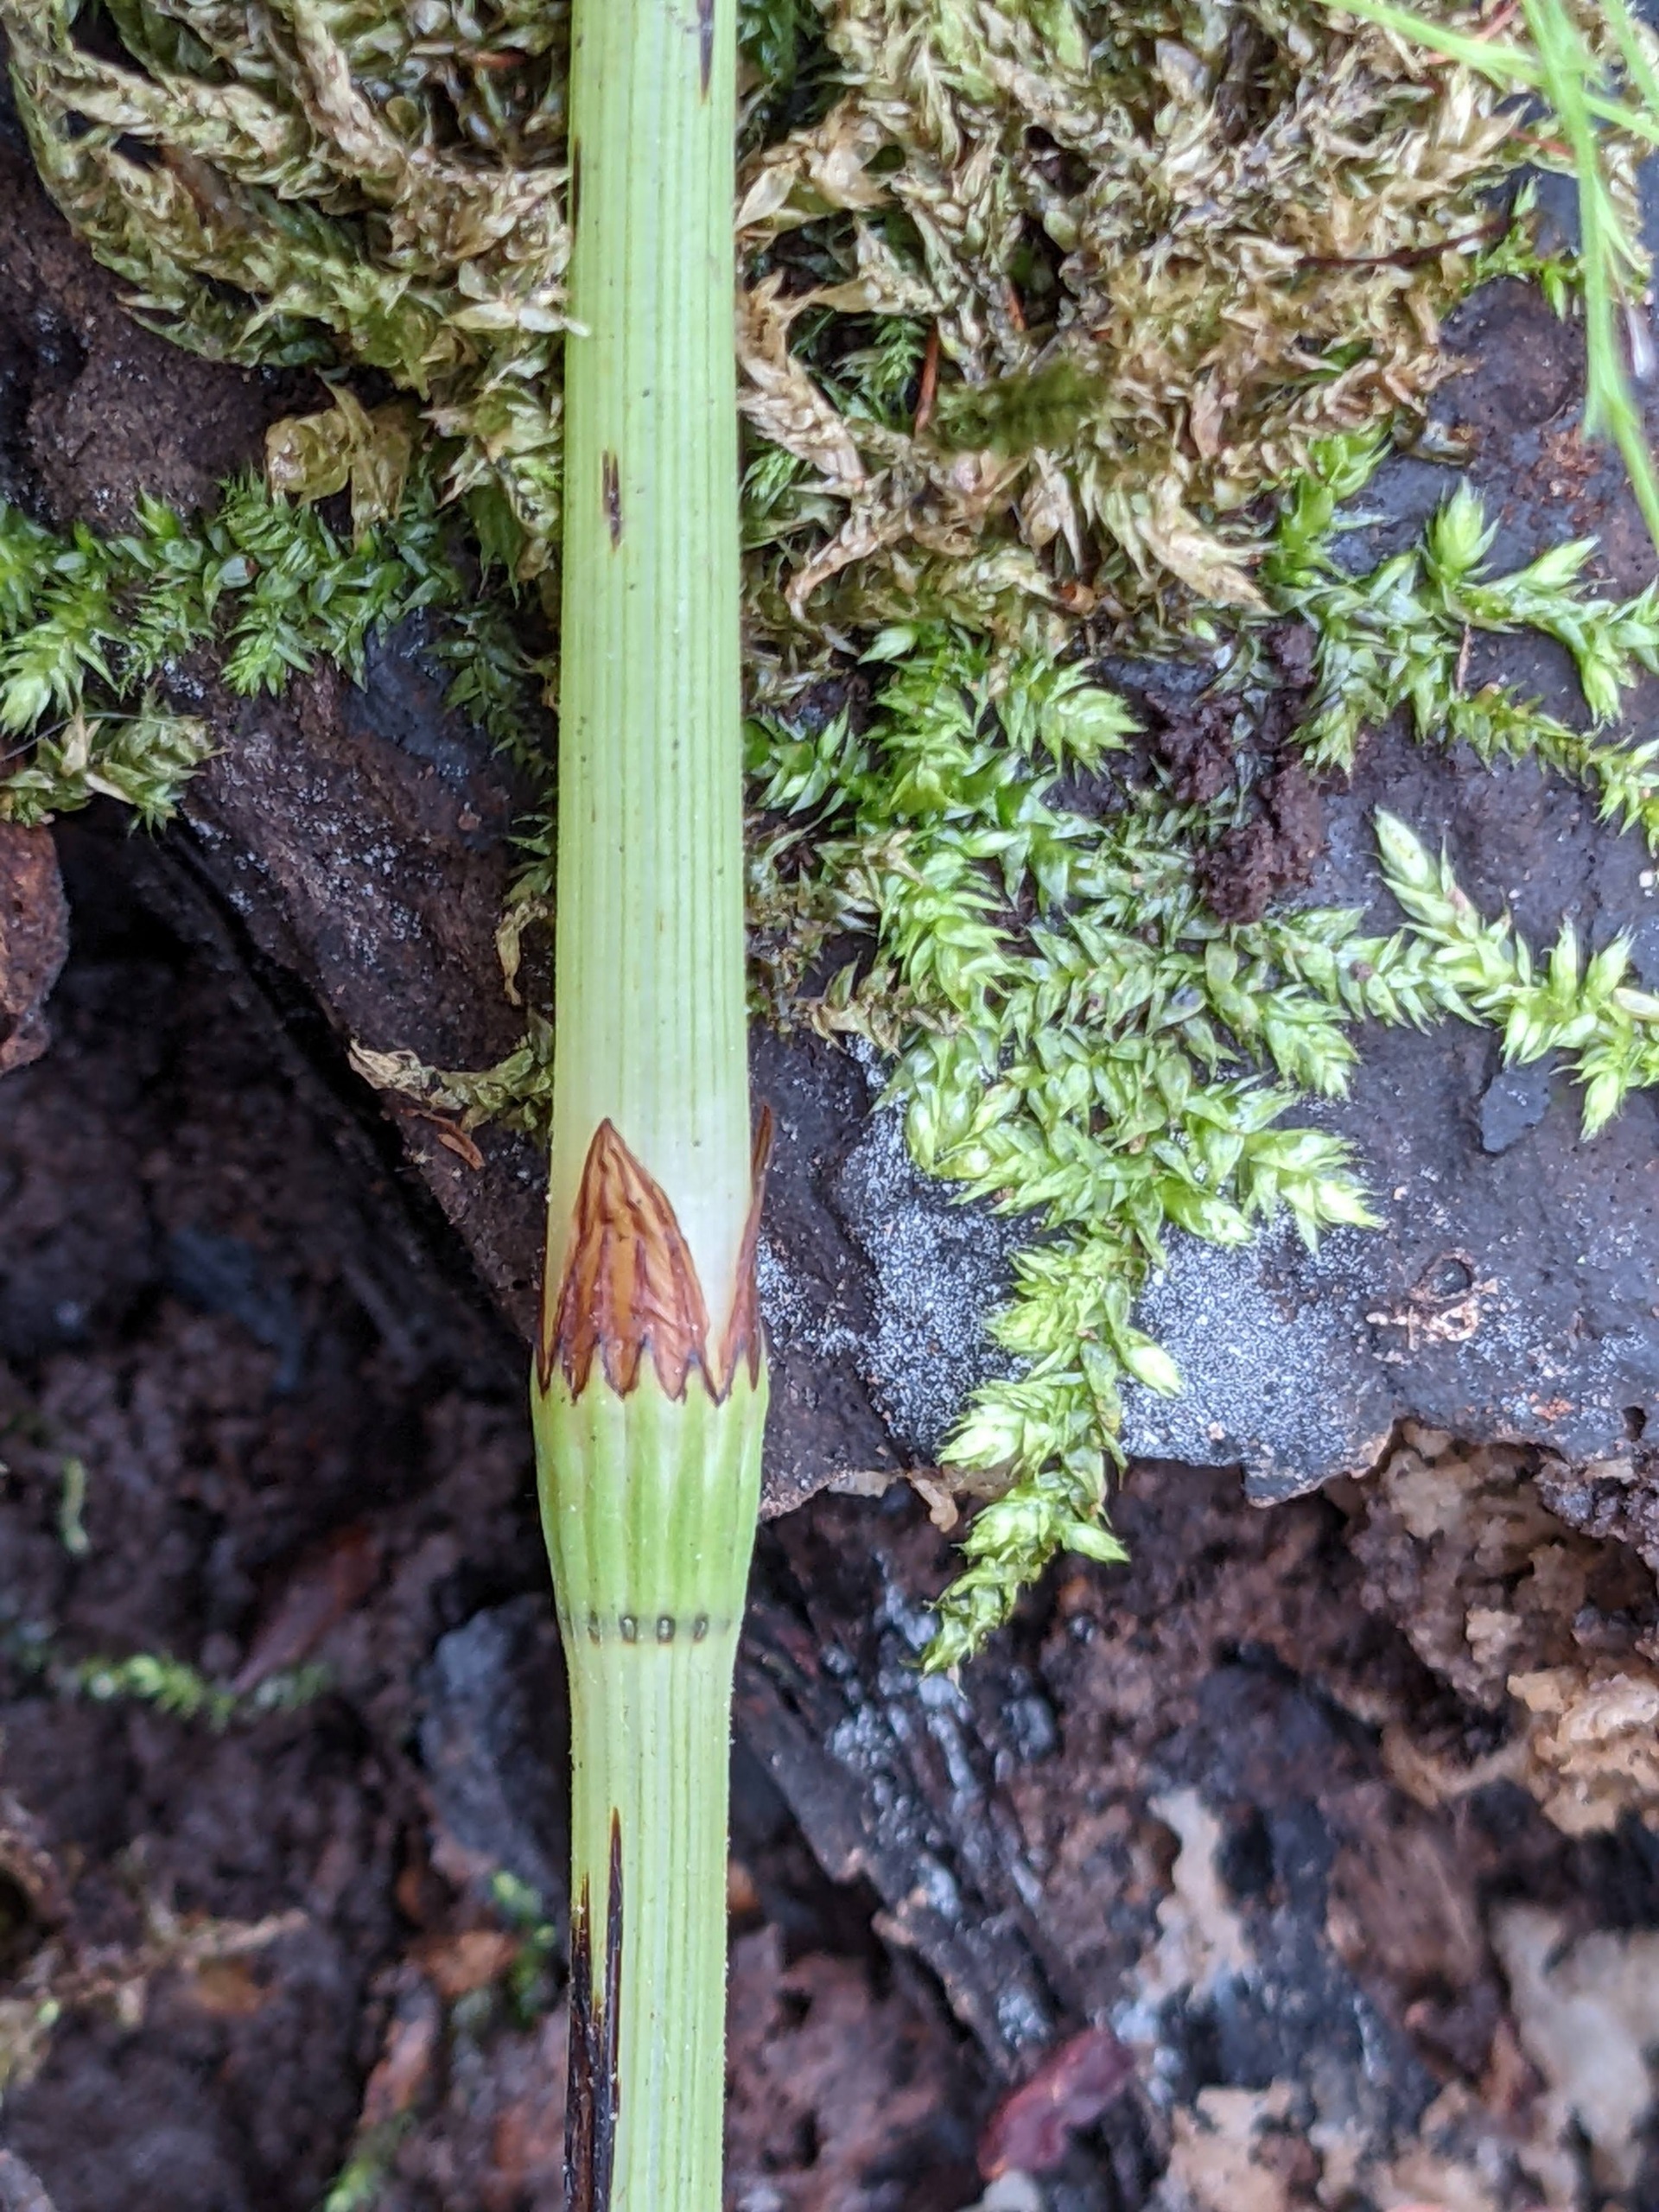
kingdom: Plantae
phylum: Tracheophyta
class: Polypodiopsida
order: Equisetales
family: Equisetaceae
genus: Equisetum
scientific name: Equisetum sylvaticum
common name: Skov-padderok
